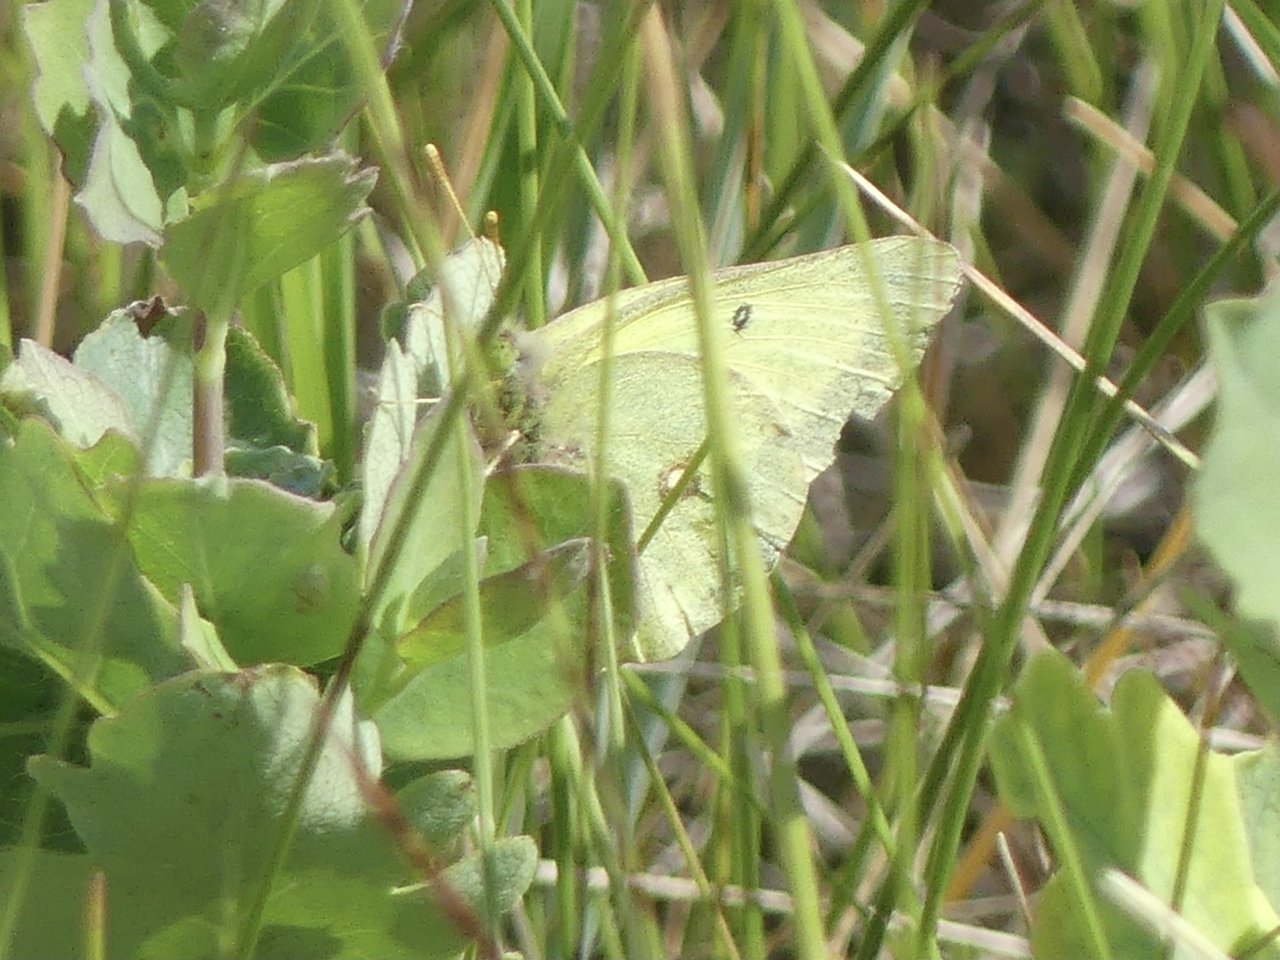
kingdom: Animalia
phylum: Arthropoda
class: Insecta
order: Lepidoptera
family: Pieridae
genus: Colias
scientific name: Colias philodice
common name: Clouded Sulphur
